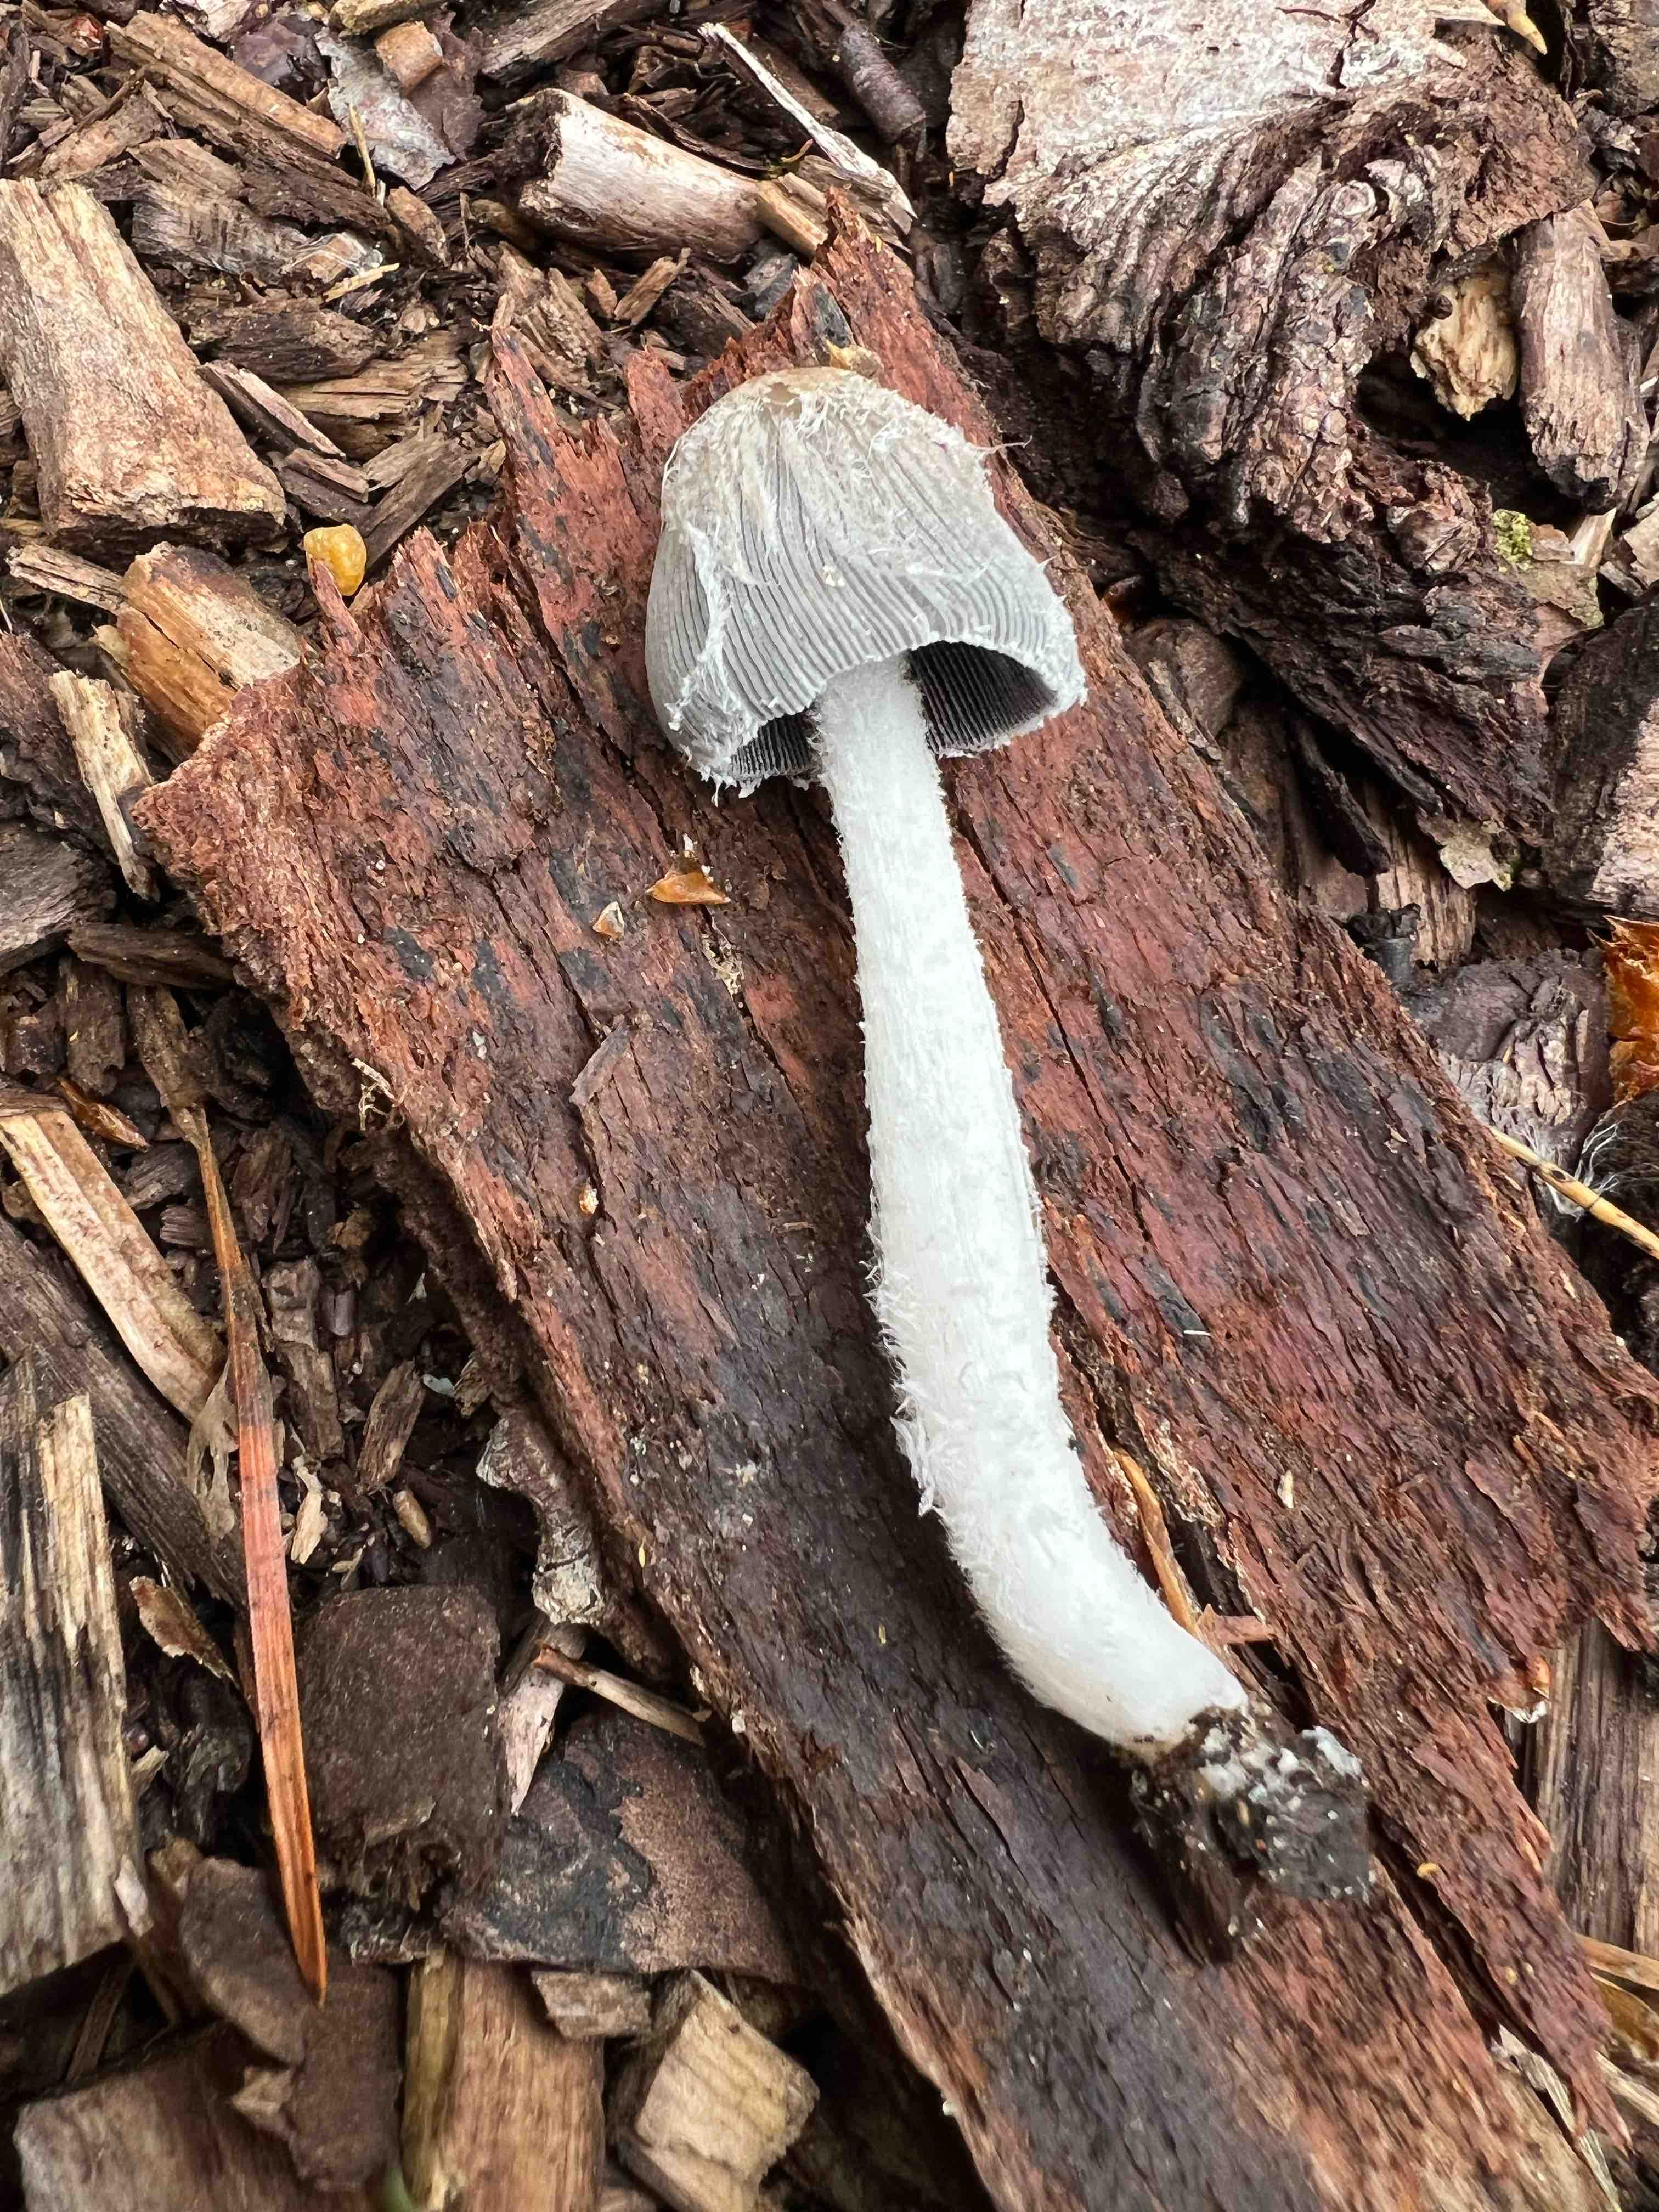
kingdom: Fungi
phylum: Basidiomycota
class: Agaricomycetes
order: Agaricales
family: Psathyrellaceae
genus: Coprinopsis
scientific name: Coprinopsis lagopus
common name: dunstokket blækhat
